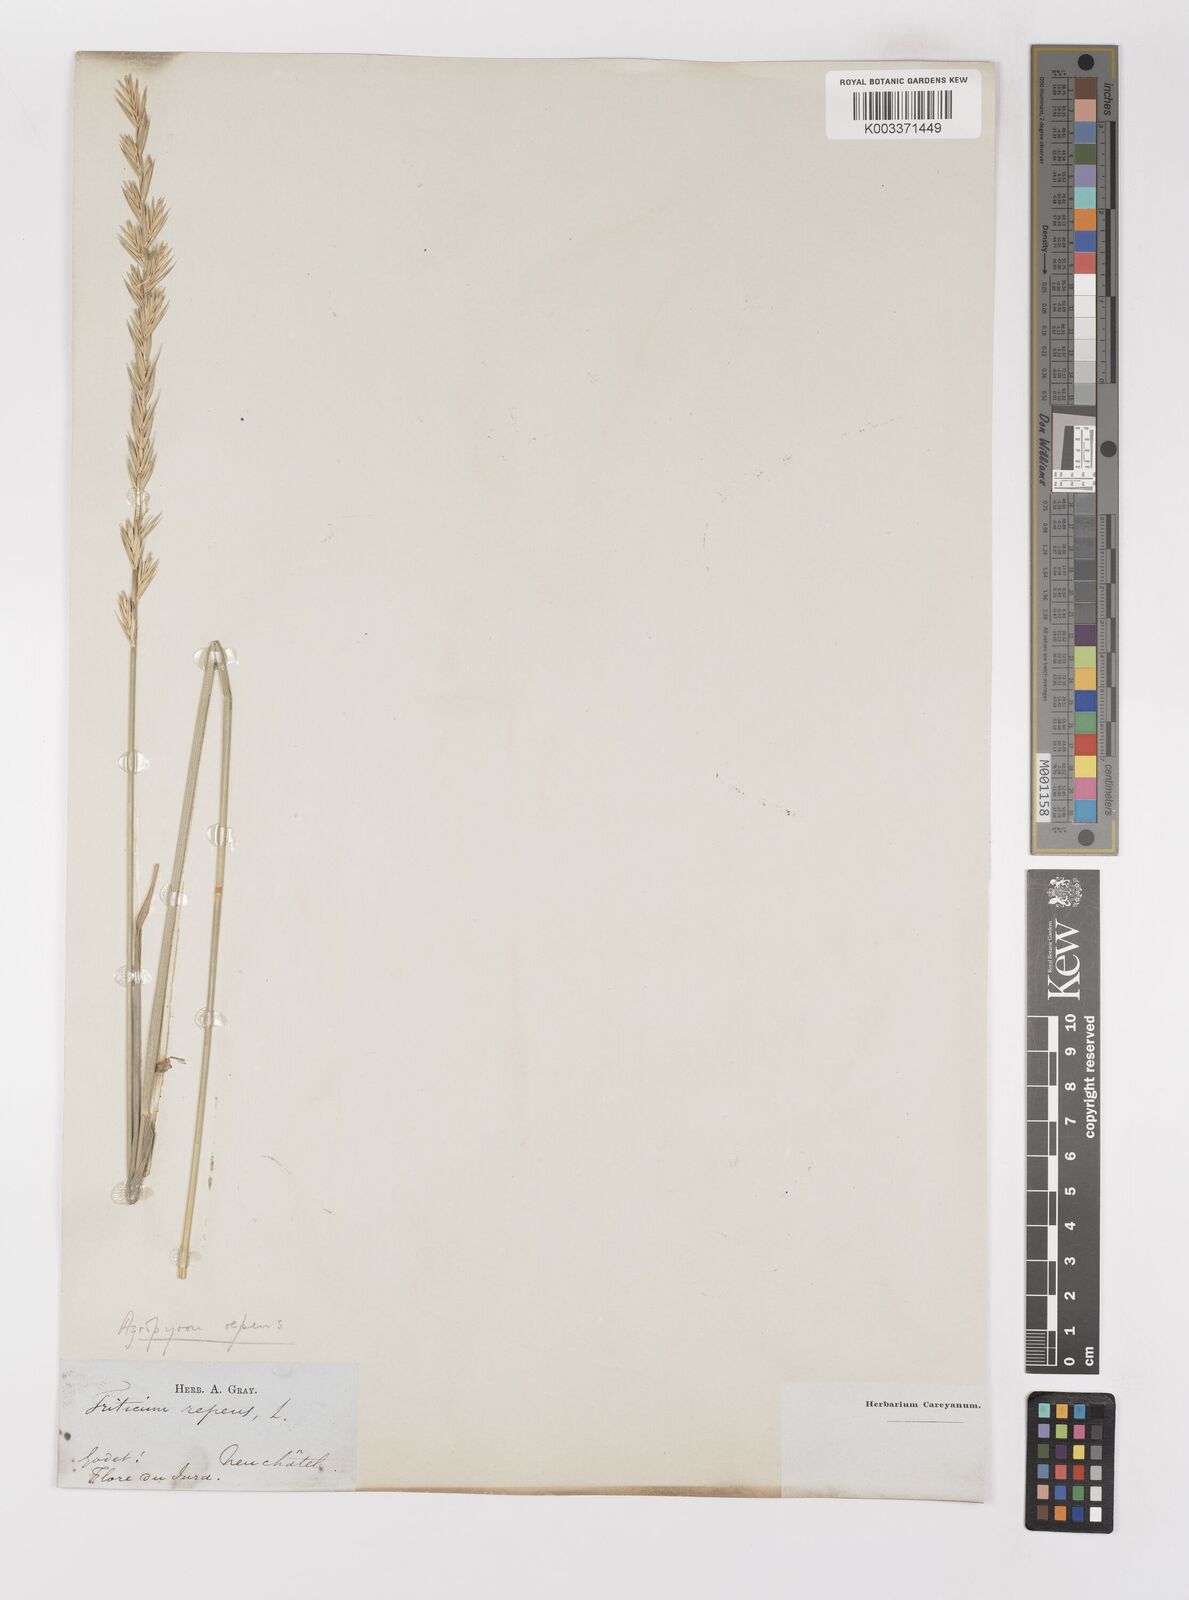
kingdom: Plantae
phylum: Tracheophyta
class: Liliopsida
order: Poales
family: Poaceae
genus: Elymus
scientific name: Elymus repens
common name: Quackgrass
